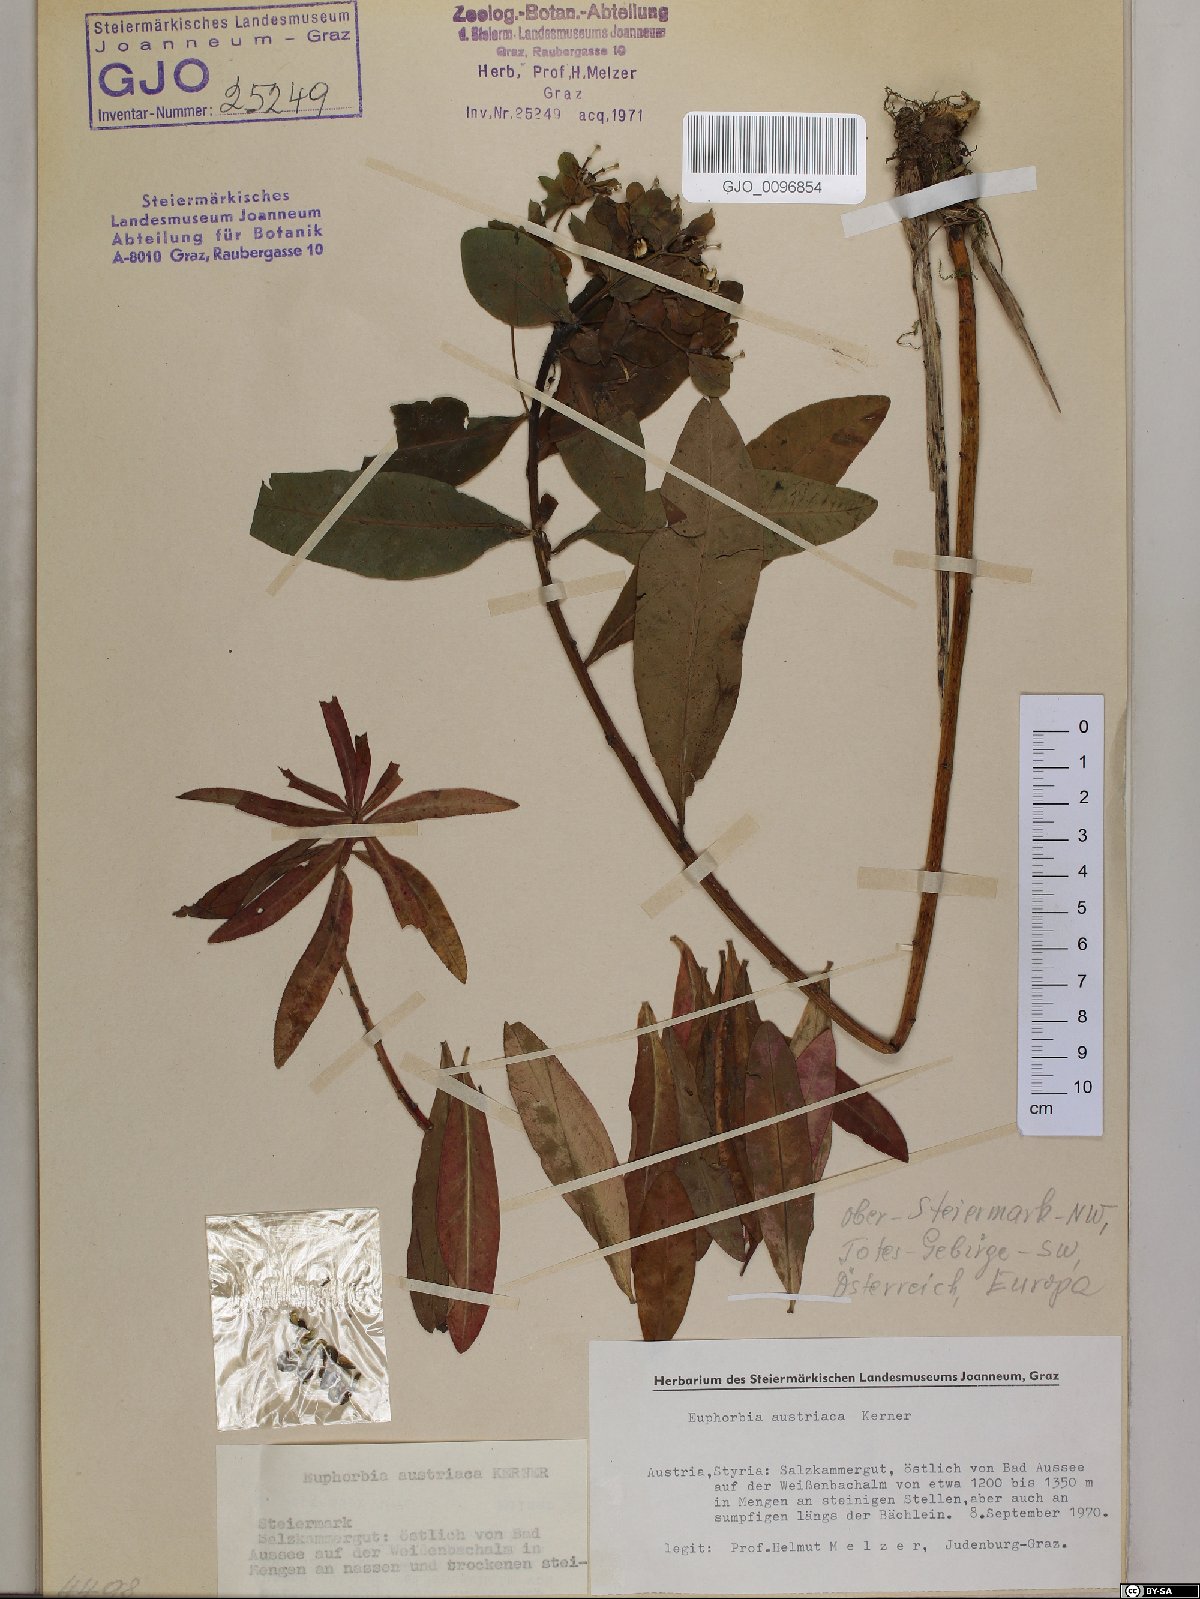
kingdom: Plantae
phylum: Tracheophyta
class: Magnoliopsida
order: Malpighiales
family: Euphorbiaceae
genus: Euphorbia
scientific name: Euphorbia austriaca
